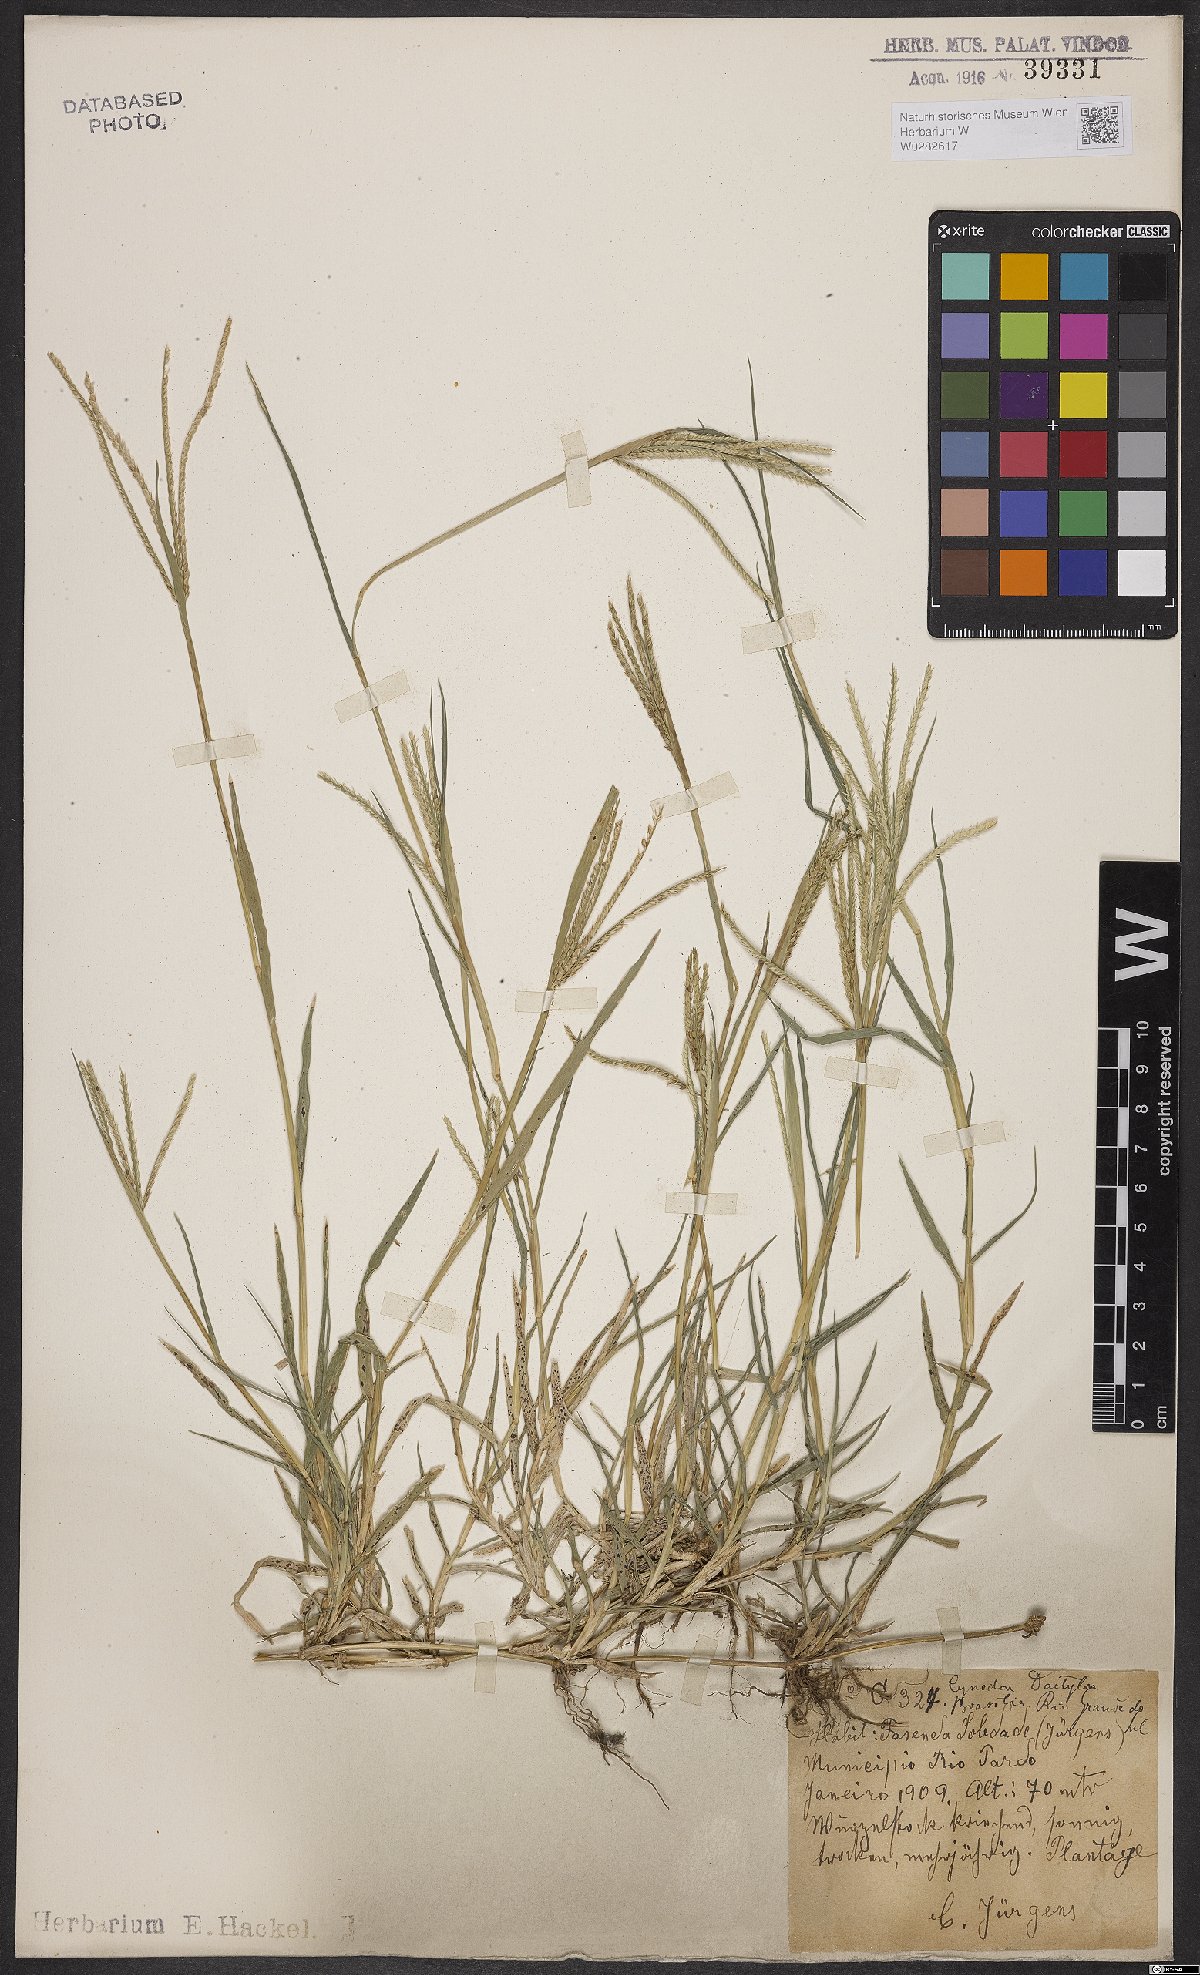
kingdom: Plantae
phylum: Tracheophyta
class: Liliopsida
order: Poales
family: Poaceae
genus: Cynodon
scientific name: Cynodon dactylon
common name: Bermuda grass
